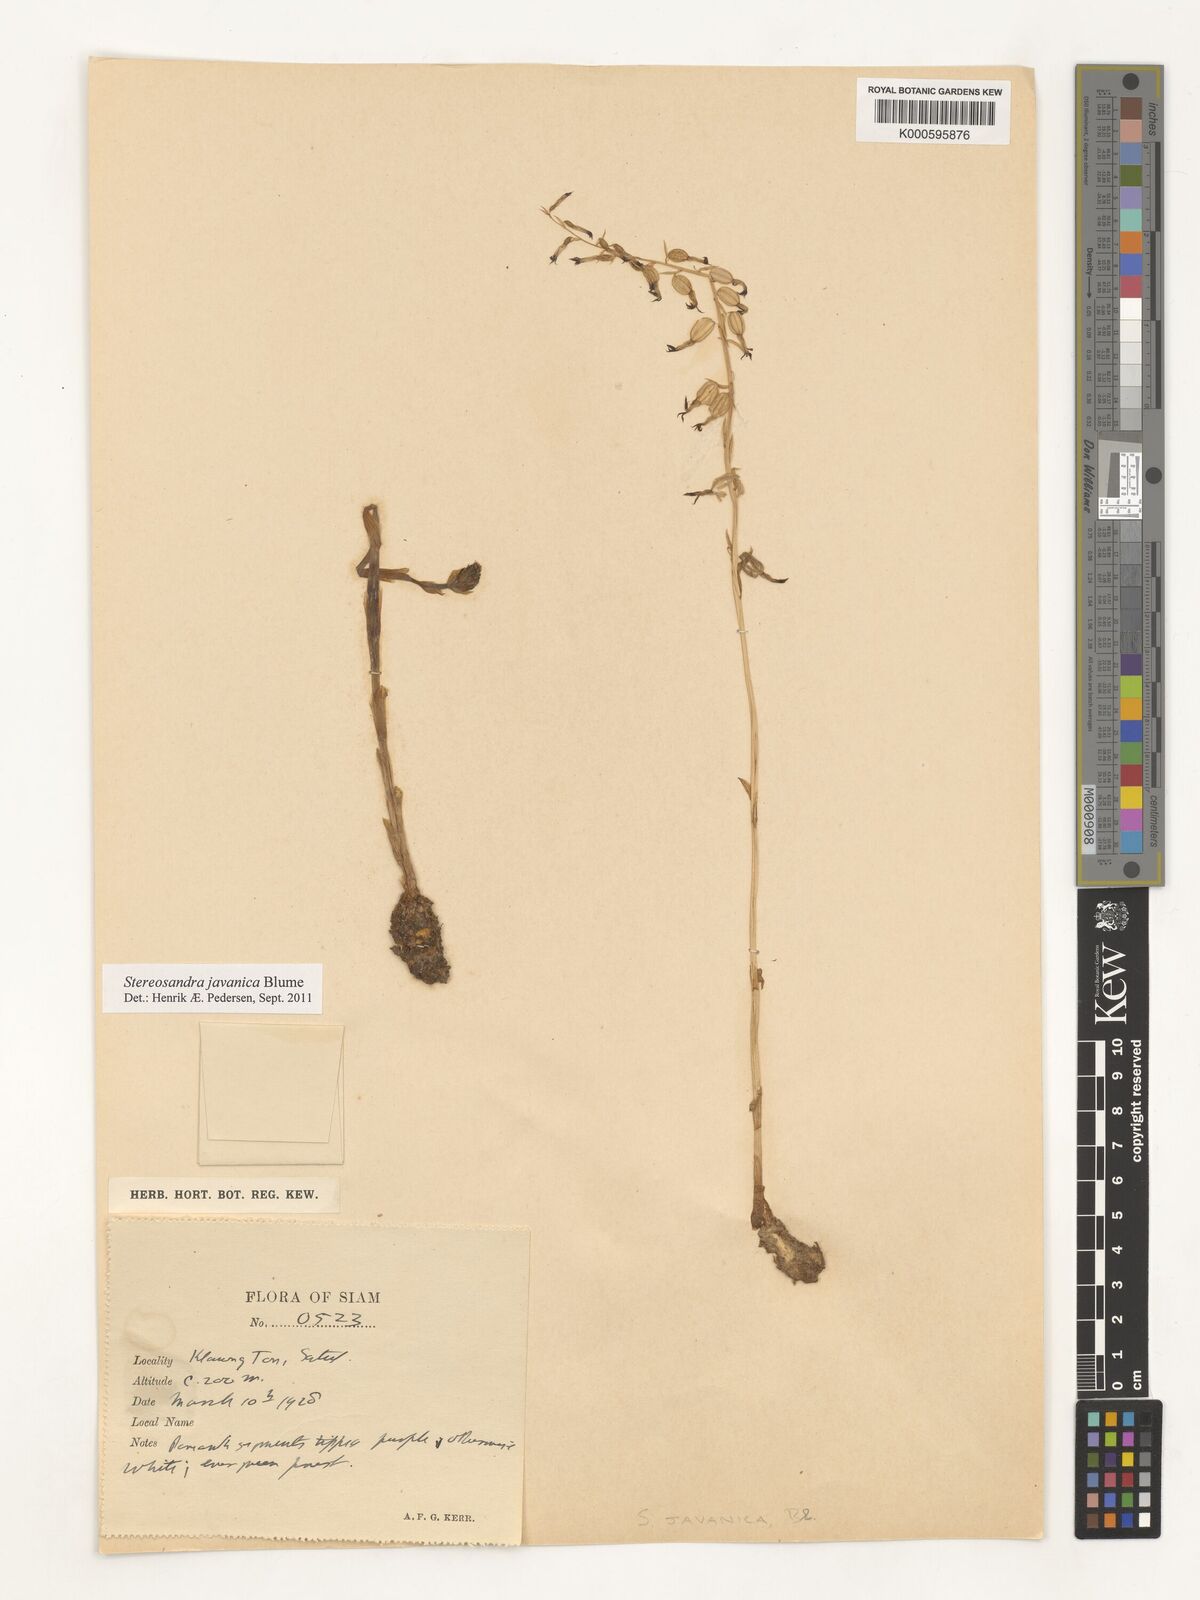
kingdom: Plantae
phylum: Tracheophyta
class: Liliopsida
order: Asparagales
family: Orchidaceae
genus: Stereosandra
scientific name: Stereosandra javanica
